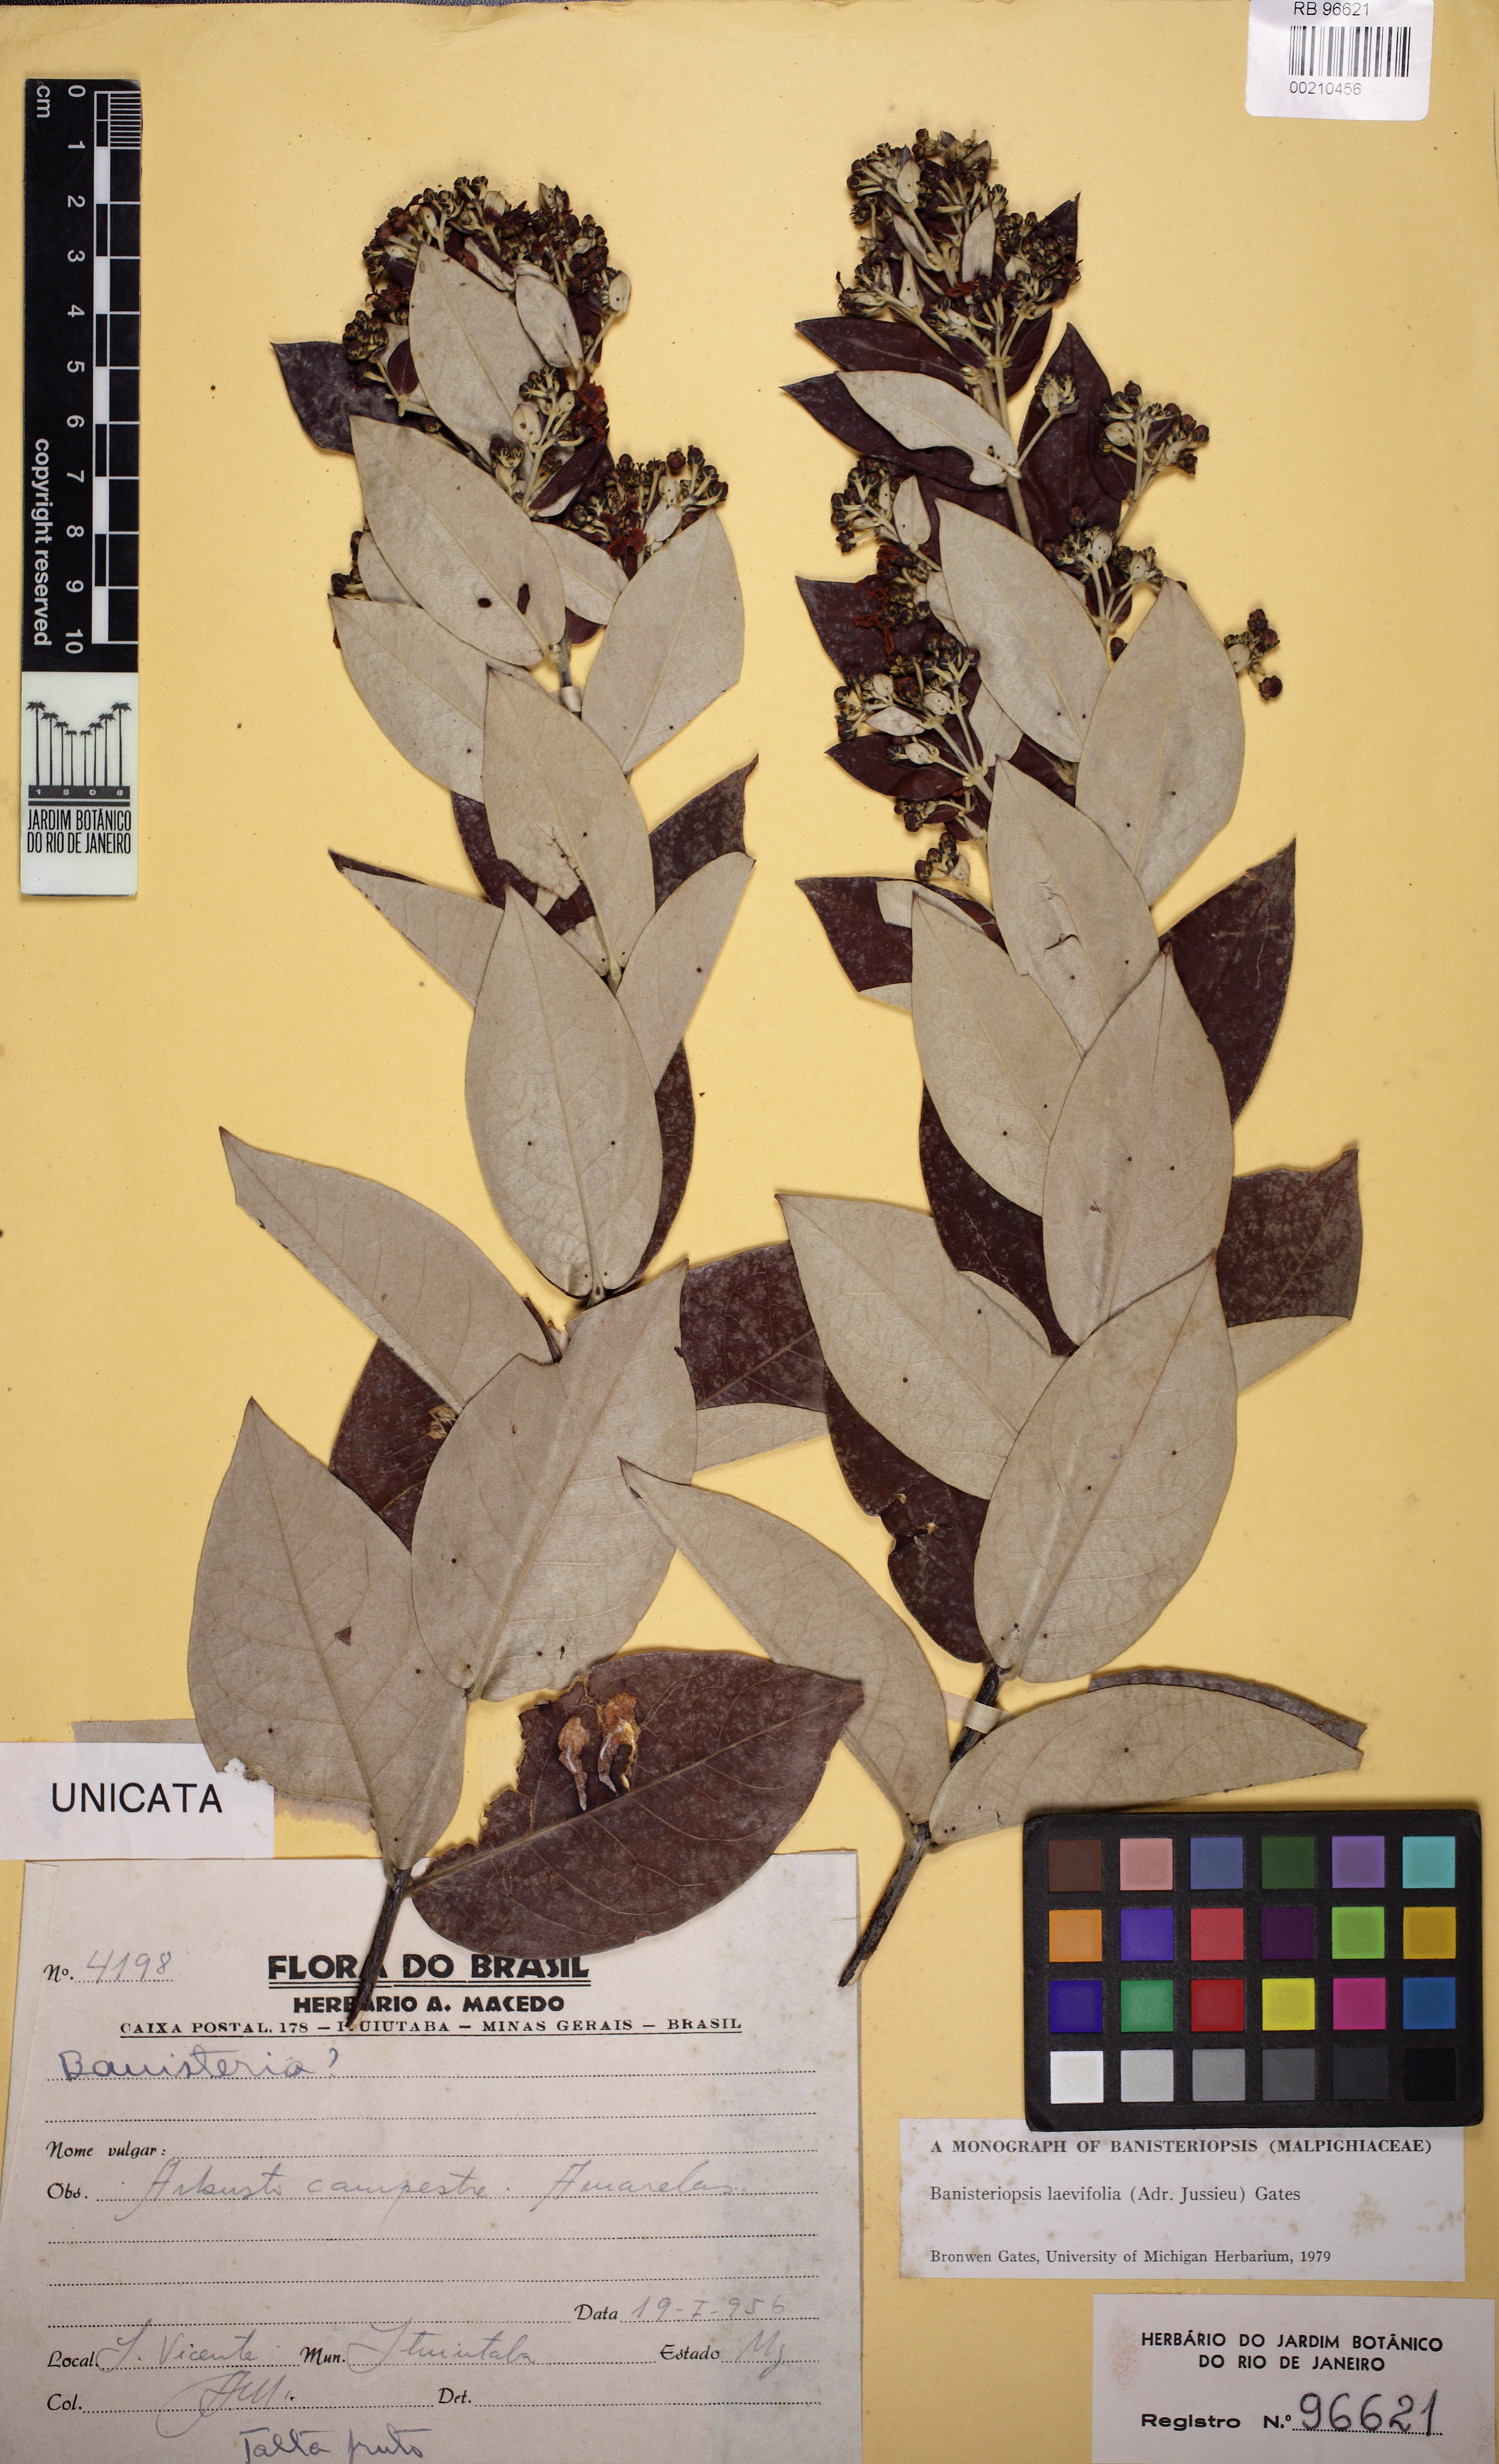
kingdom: Plantae
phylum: Tracheophyta
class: Magnoliopsida
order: Malpighiales
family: Malpighiaceae
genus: Banisteriopsis
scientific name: Banisteriopsis laevifolia
